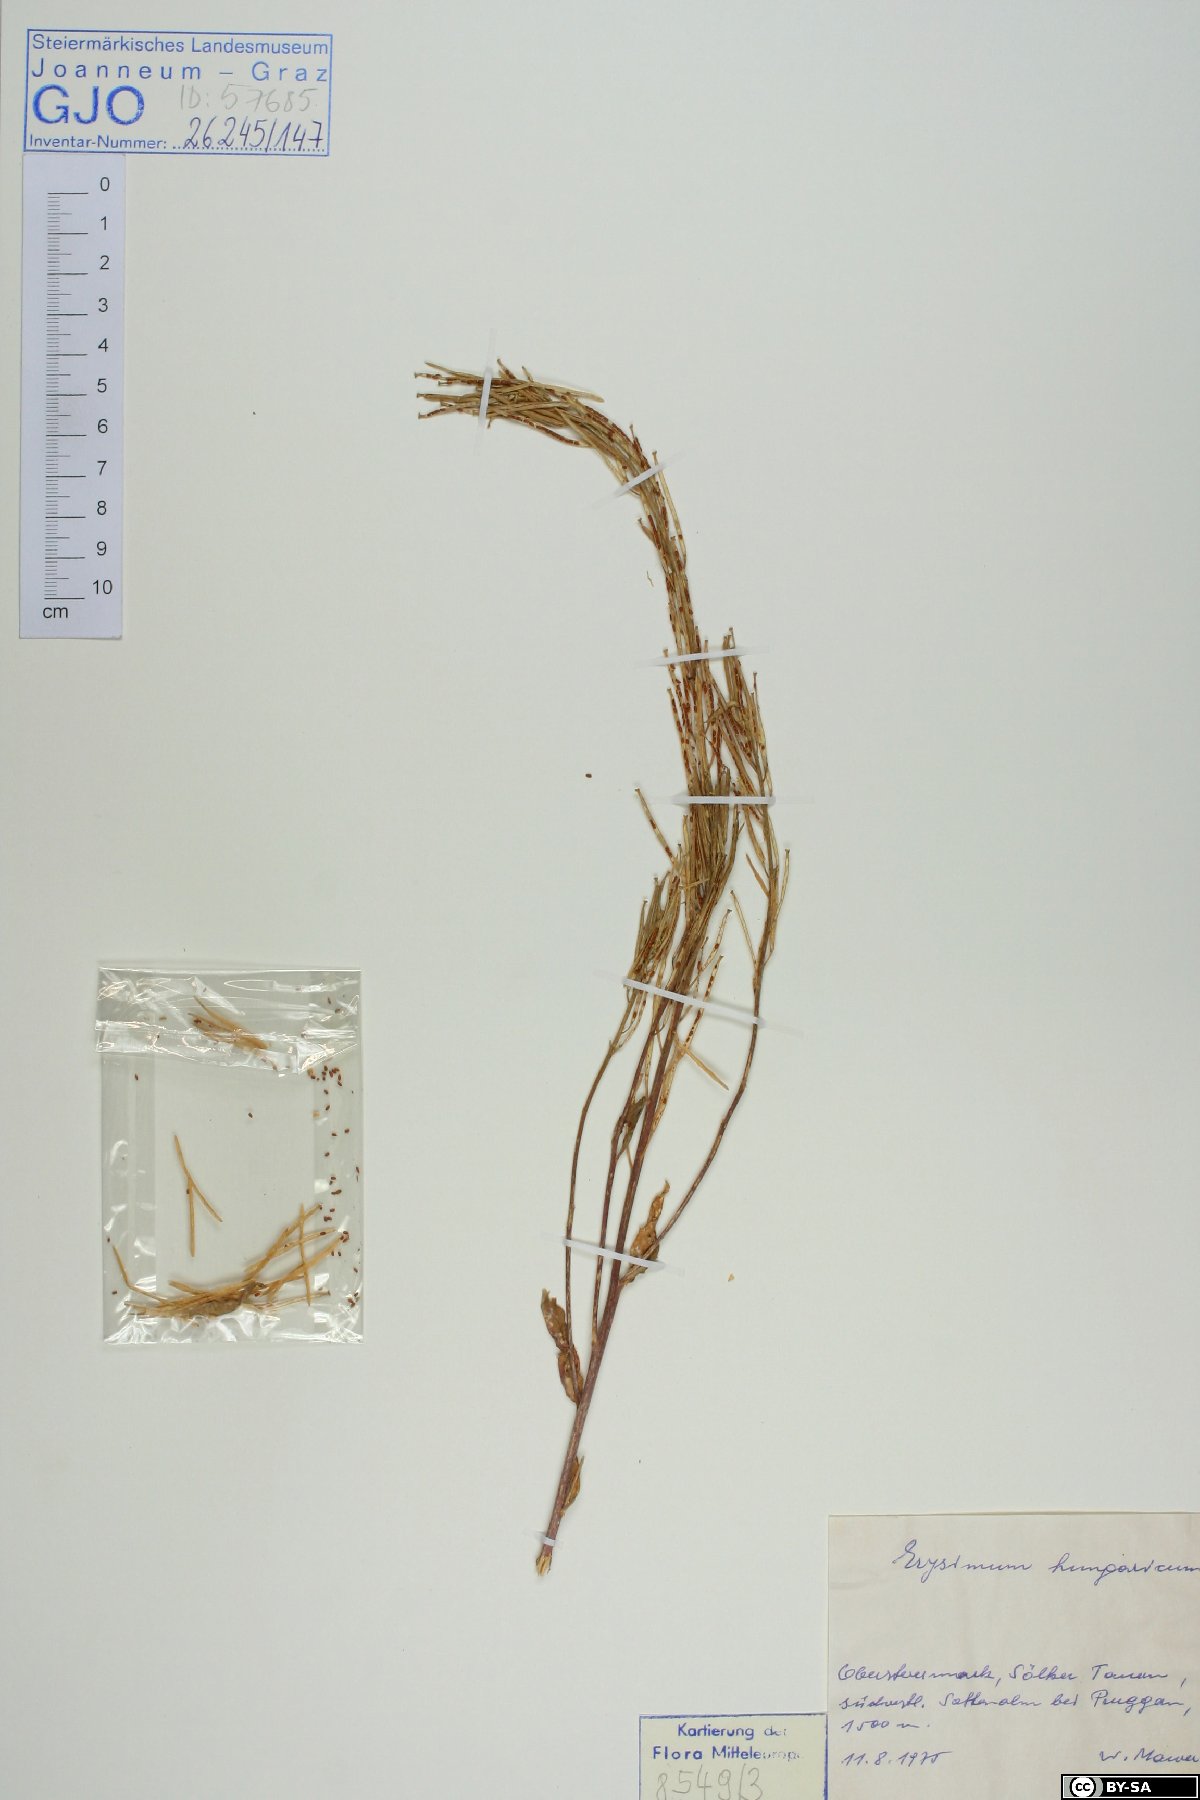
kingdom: Plantae
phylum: Tracheophyta
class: Magnoliopsida
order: Brassicales
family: Brassicaceae
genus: Erysimum
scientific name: Erysimum hungaricum
